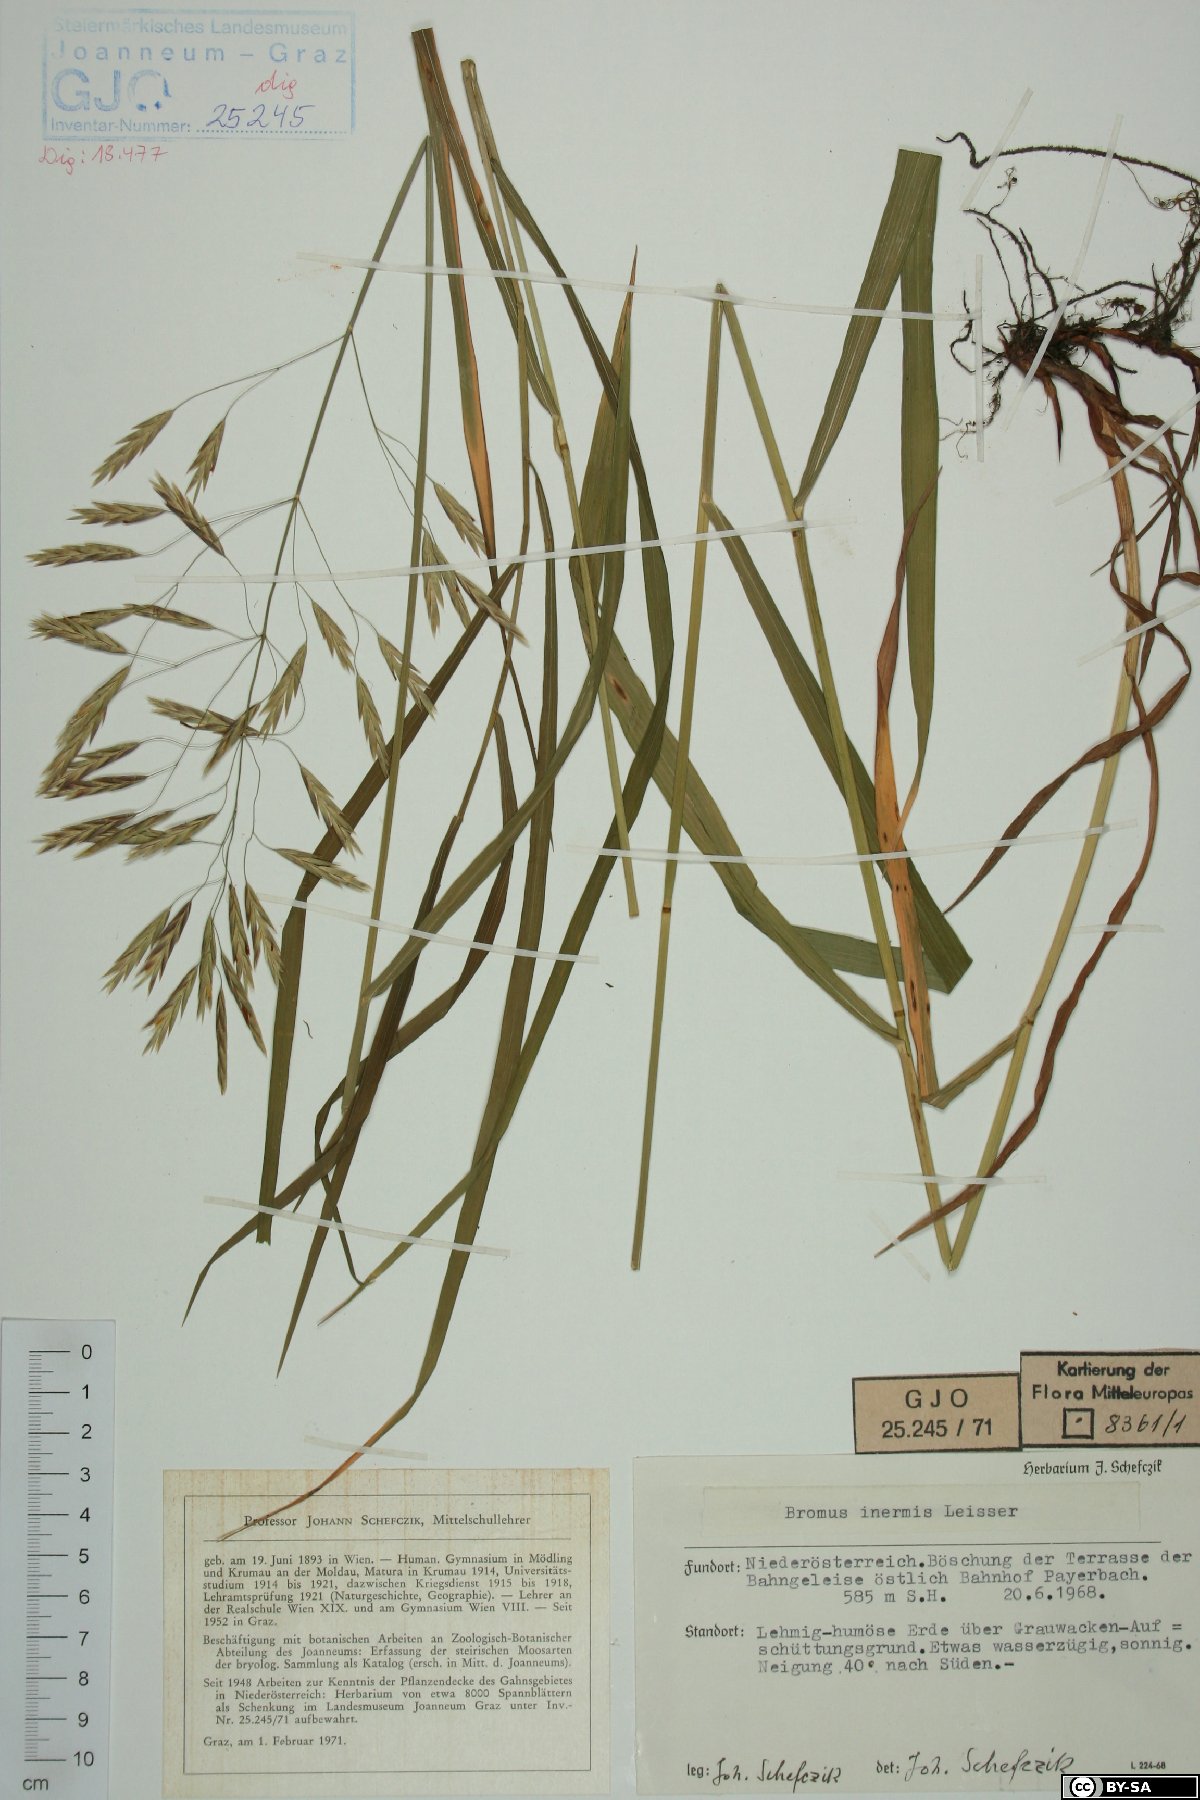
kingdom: Plantae
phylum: Tracheophyta
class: Liliopsida
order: Poales
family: Poaceae
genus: Bromus
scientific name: Bromus inermis
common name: Smooth brome
